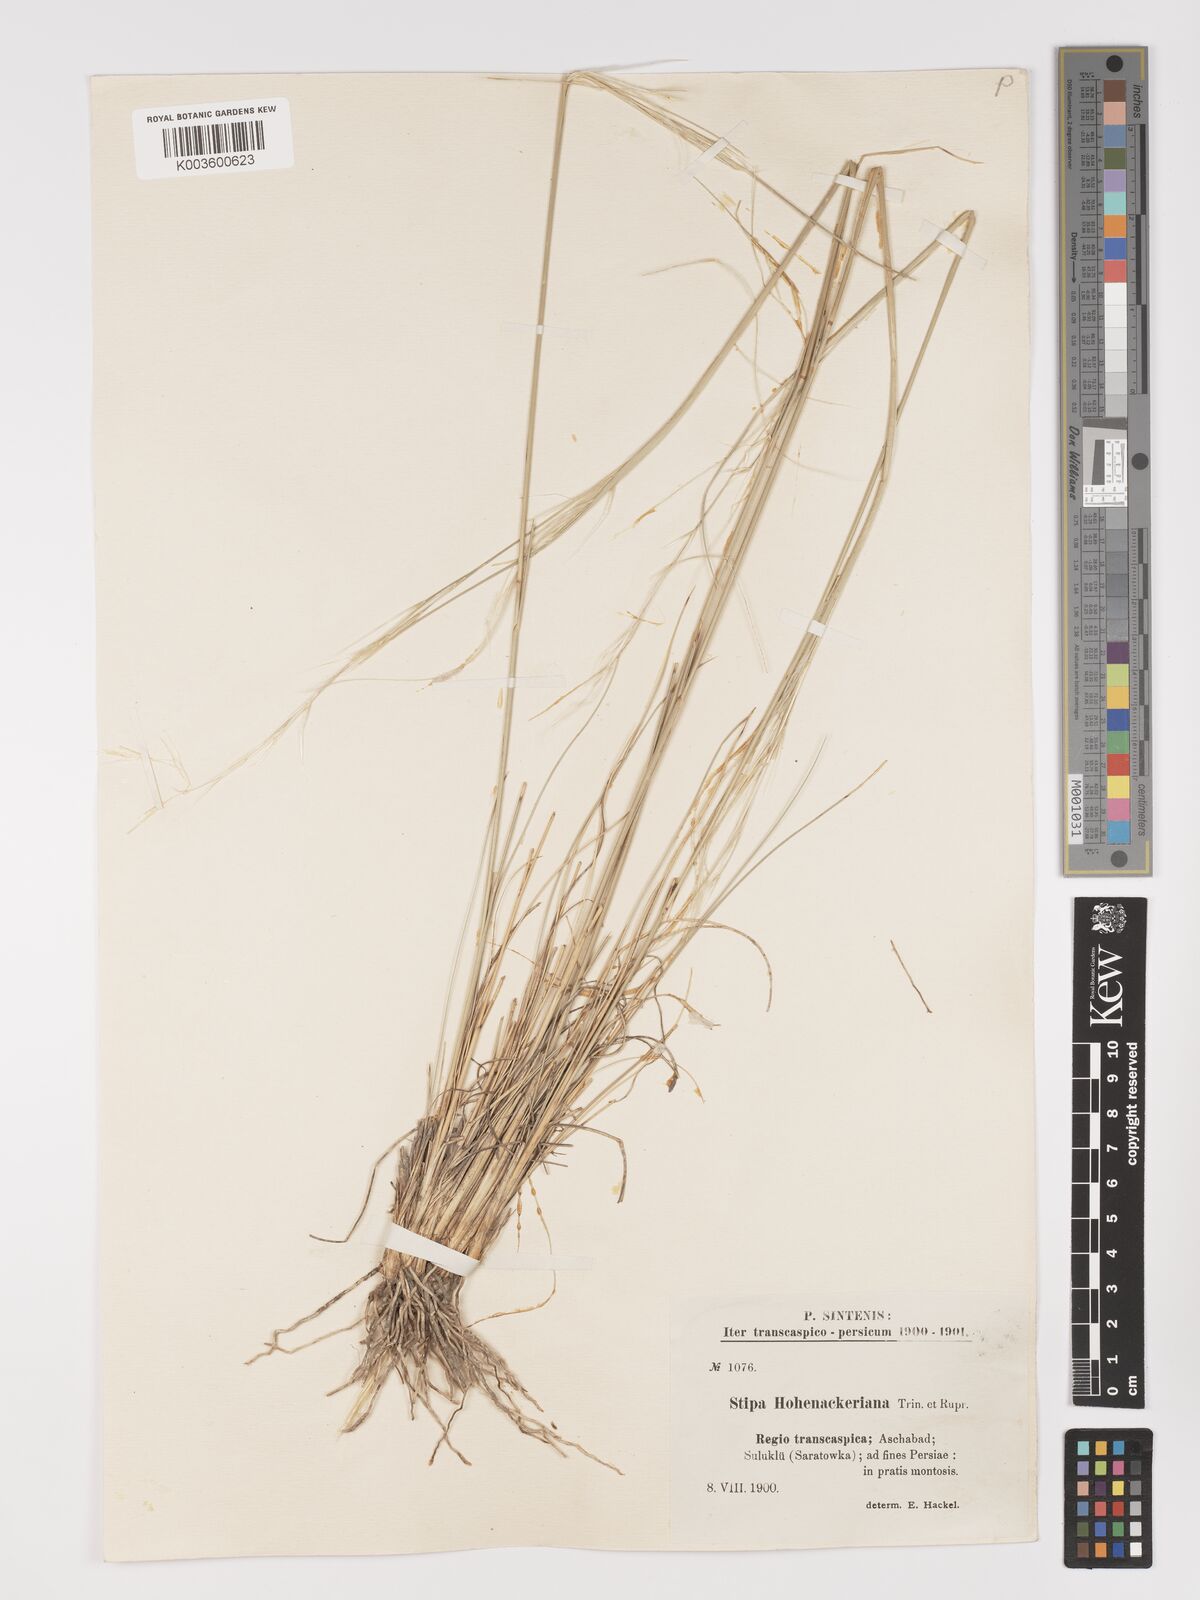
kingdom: Plantae
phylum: Tracheophyta
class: Liliopsida
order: Poales
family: Poaceae
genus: Stipa
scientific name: Stipa hohenackeriana
